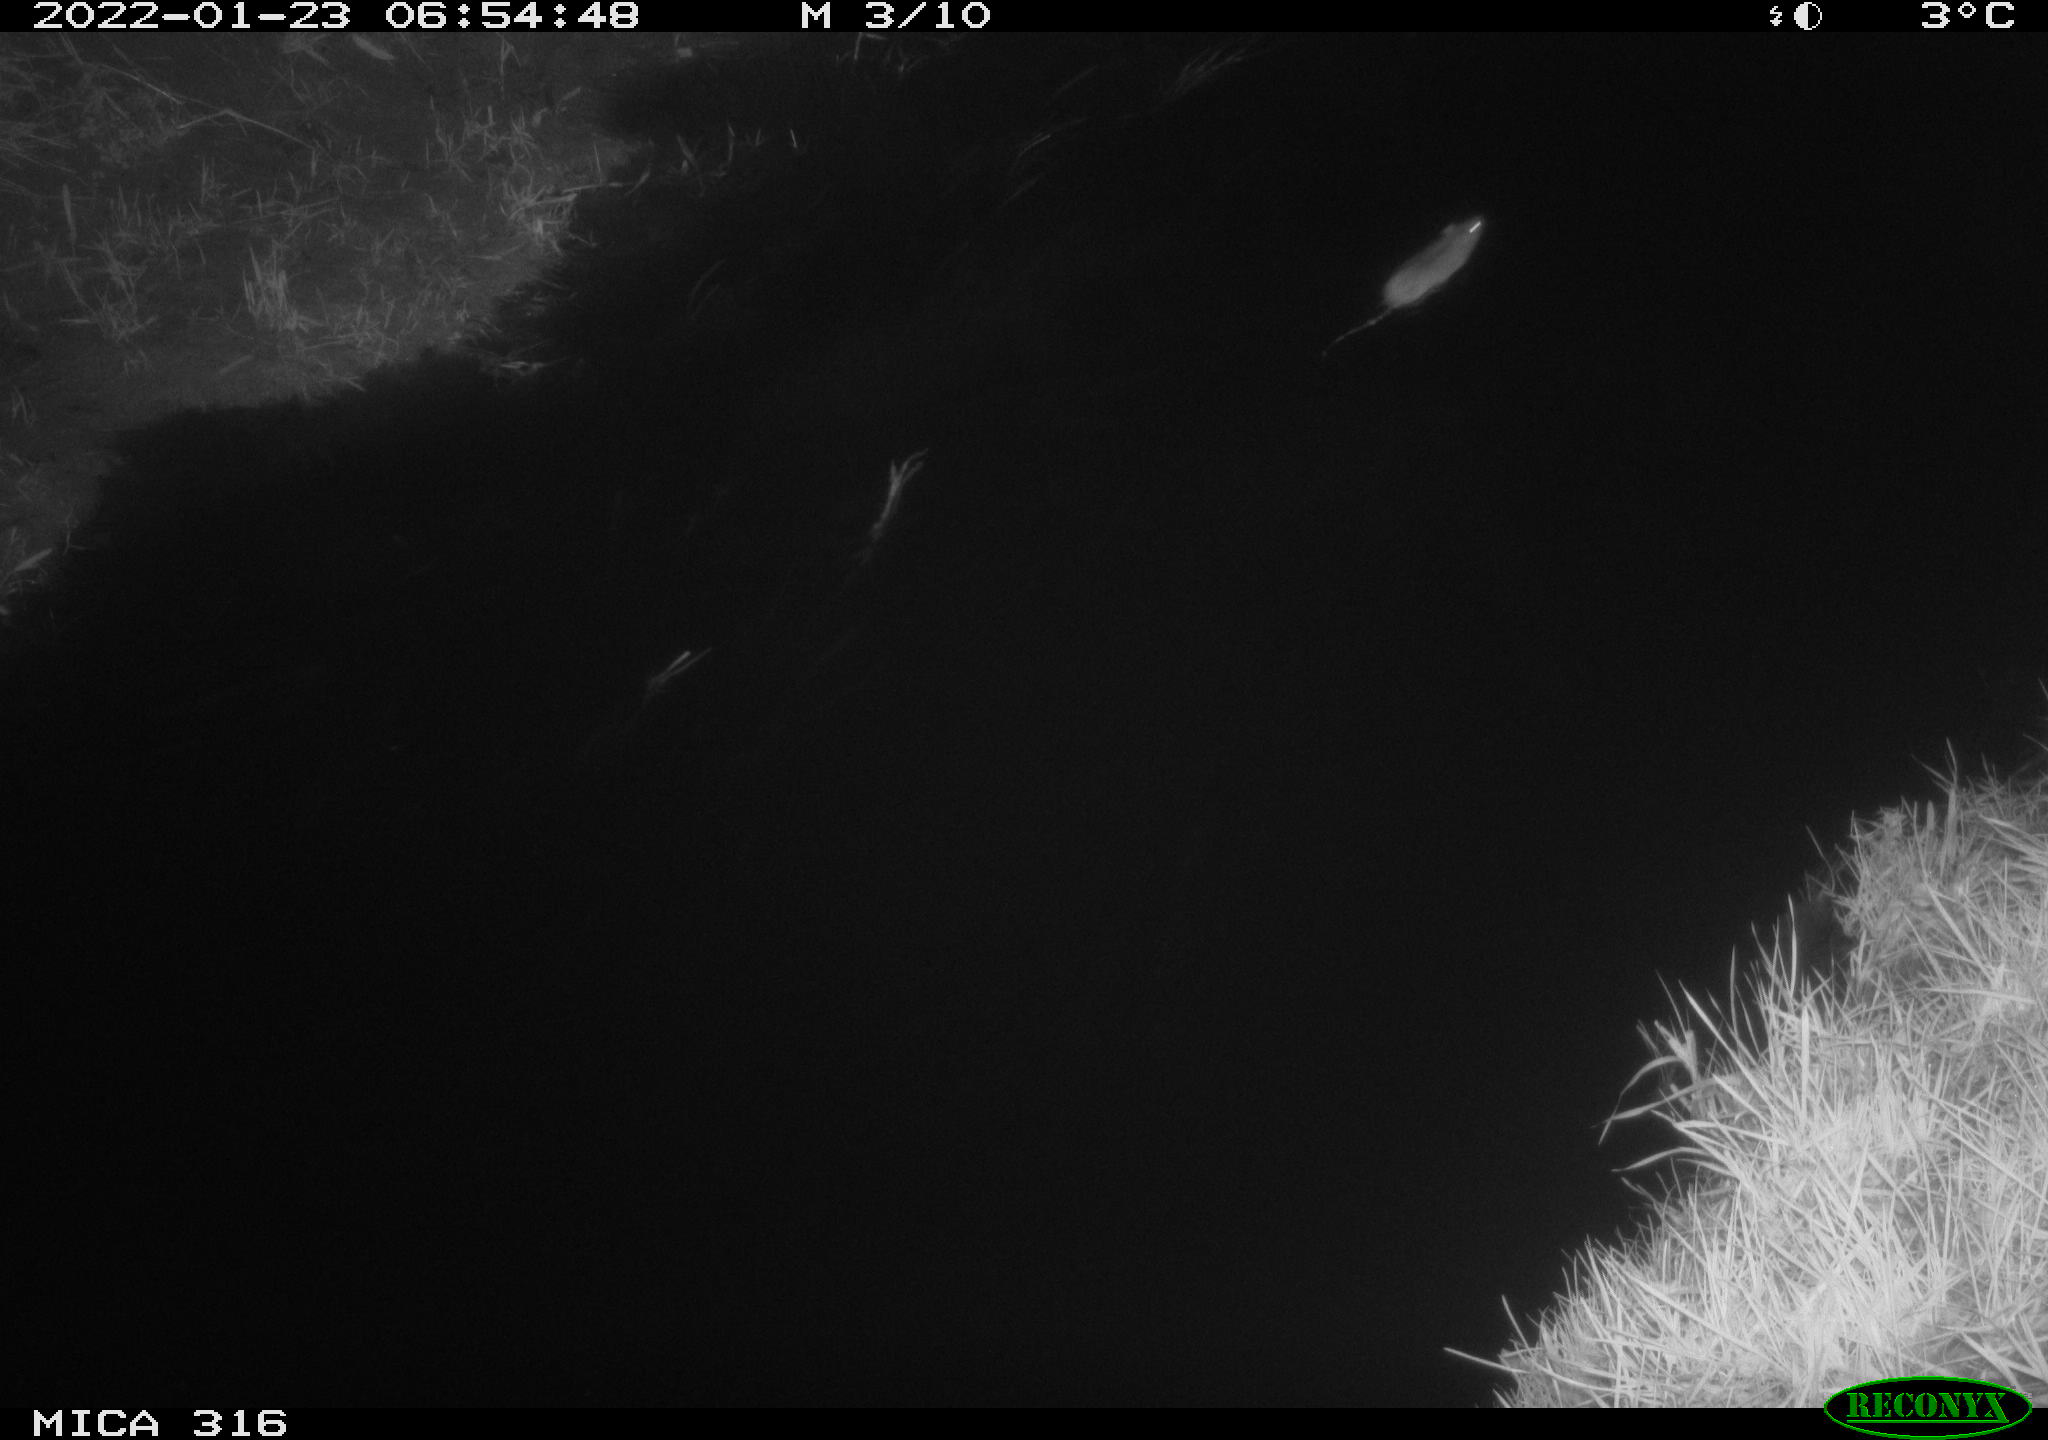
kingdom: Animalia
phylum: Chordata
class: Mammalia
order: Rodentia
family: Muridae
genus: Rattus
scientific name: Rattus norvegicus
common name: Brown rat
